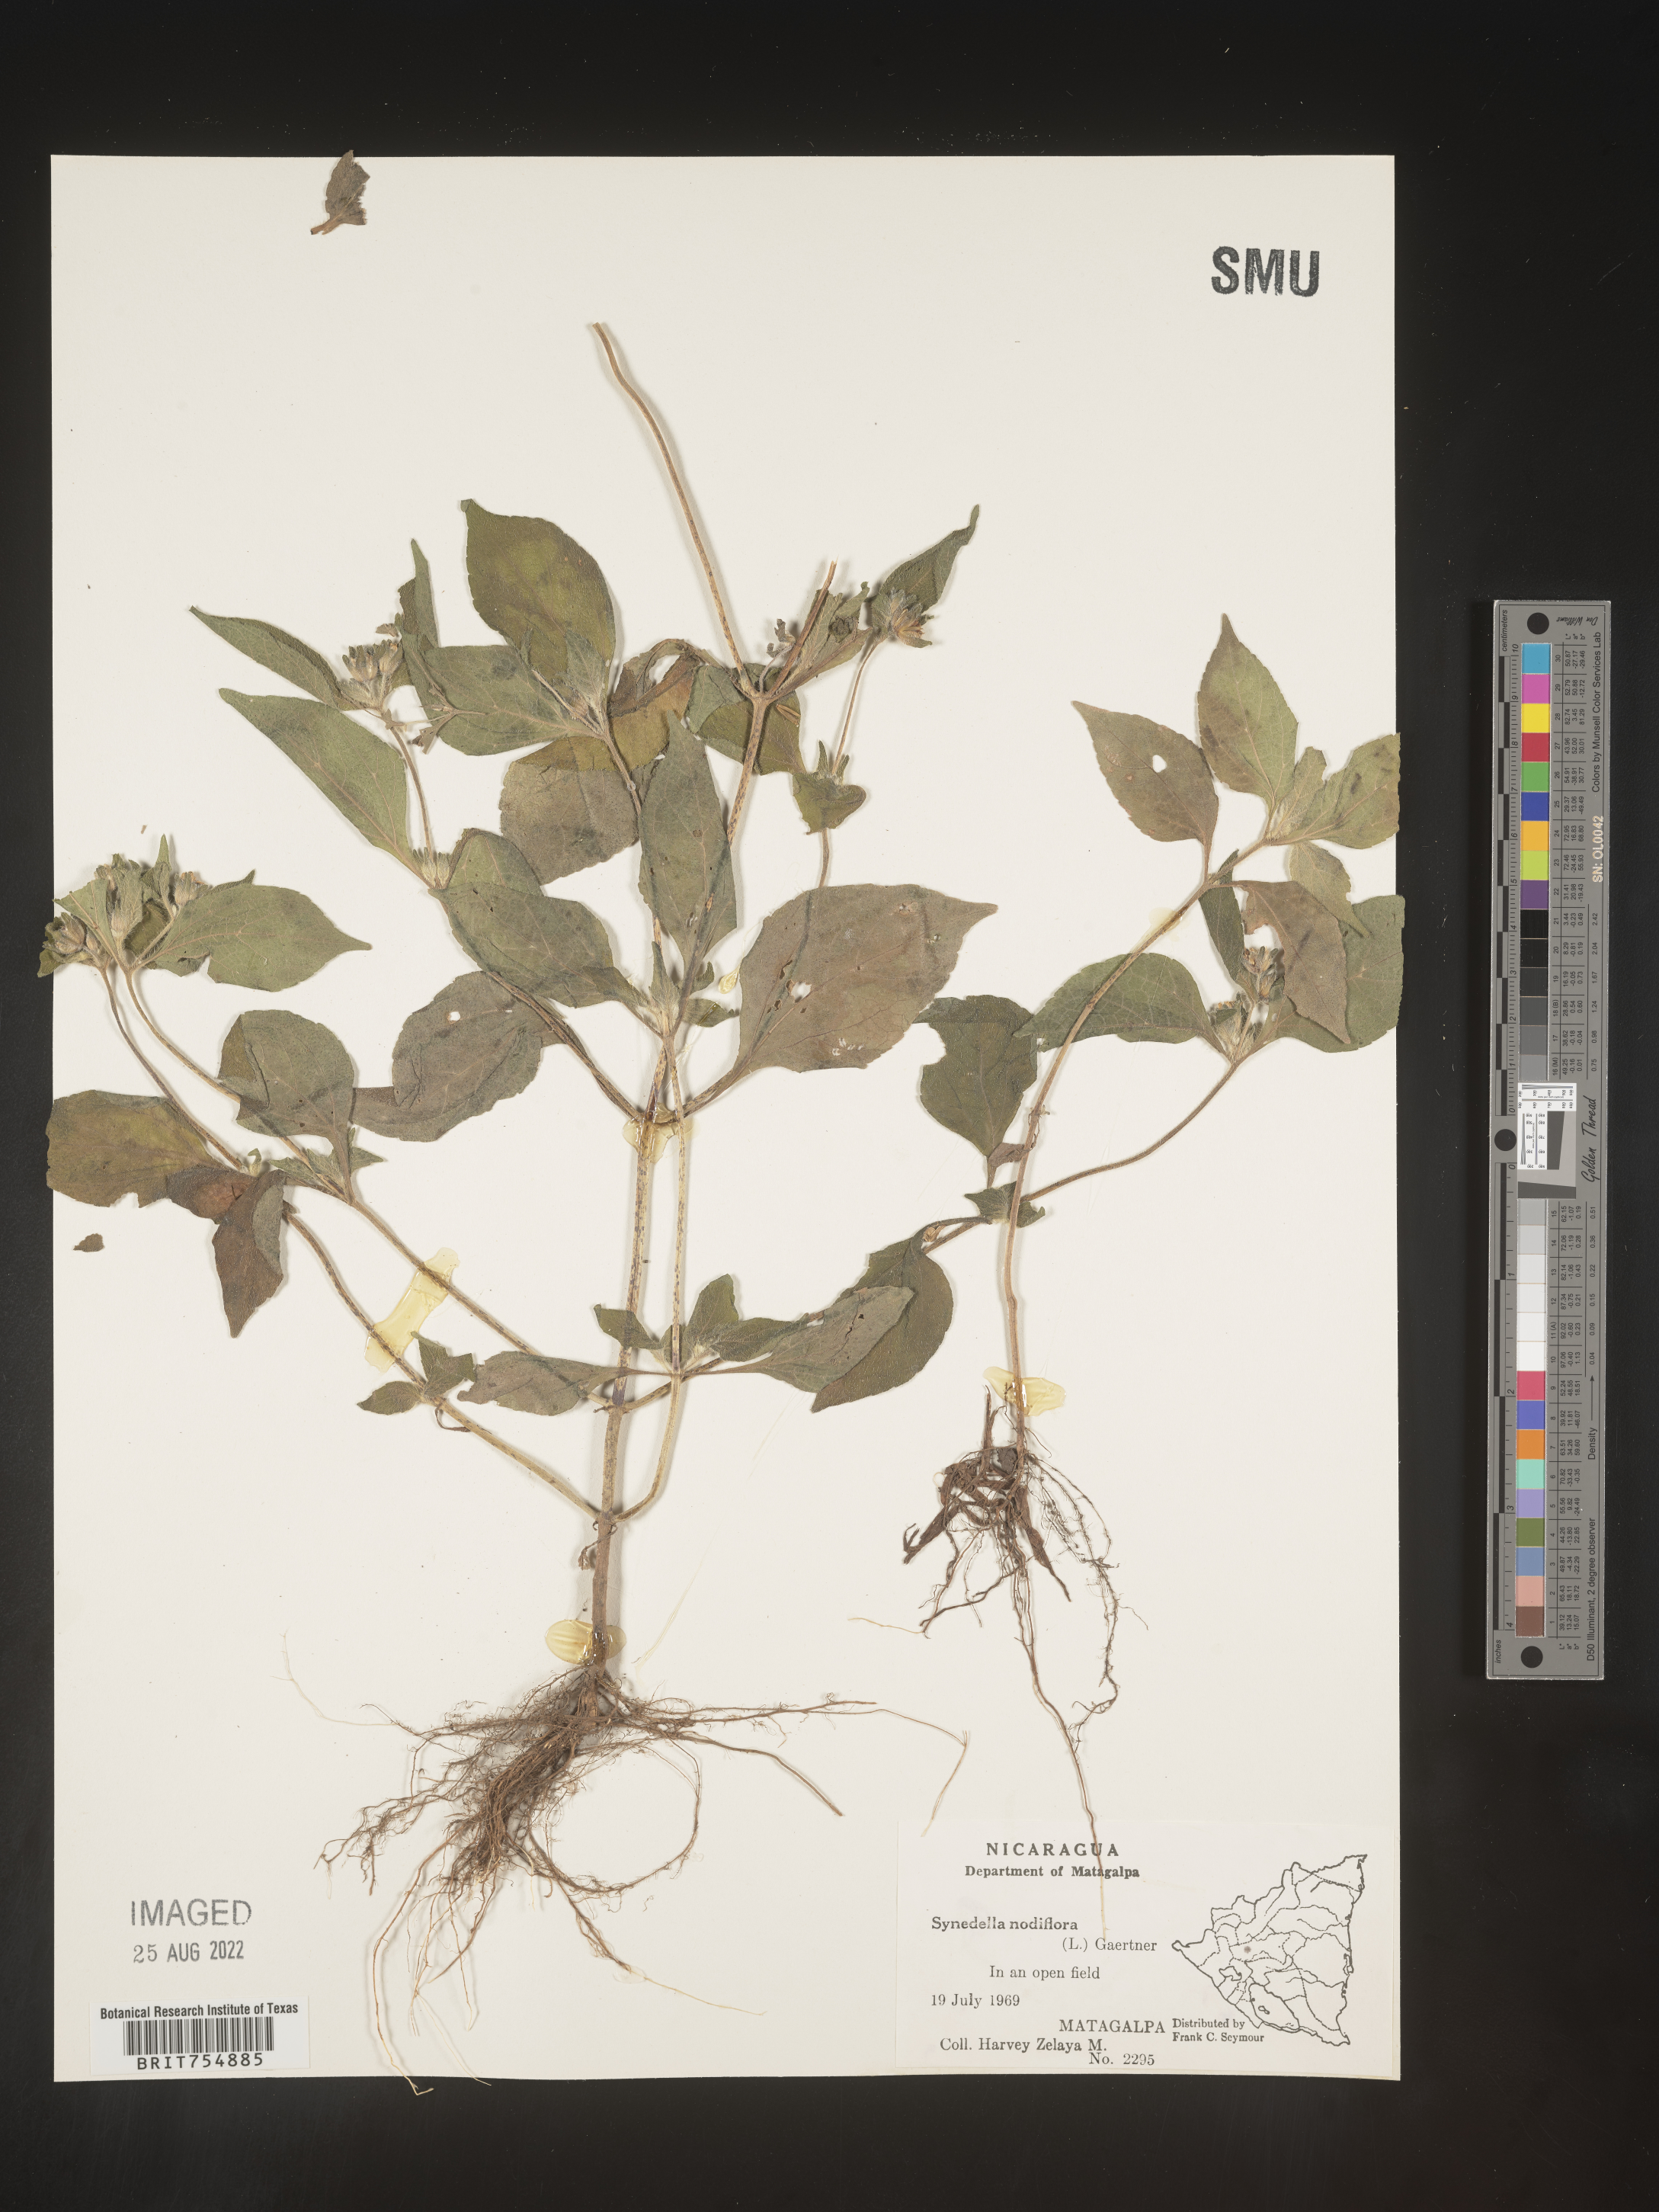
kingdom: Plantae
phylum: Tracheophyta
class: Magnoliopsida
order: Asterales
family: Asteraceae
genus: Synedrella
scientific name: Synedrella
